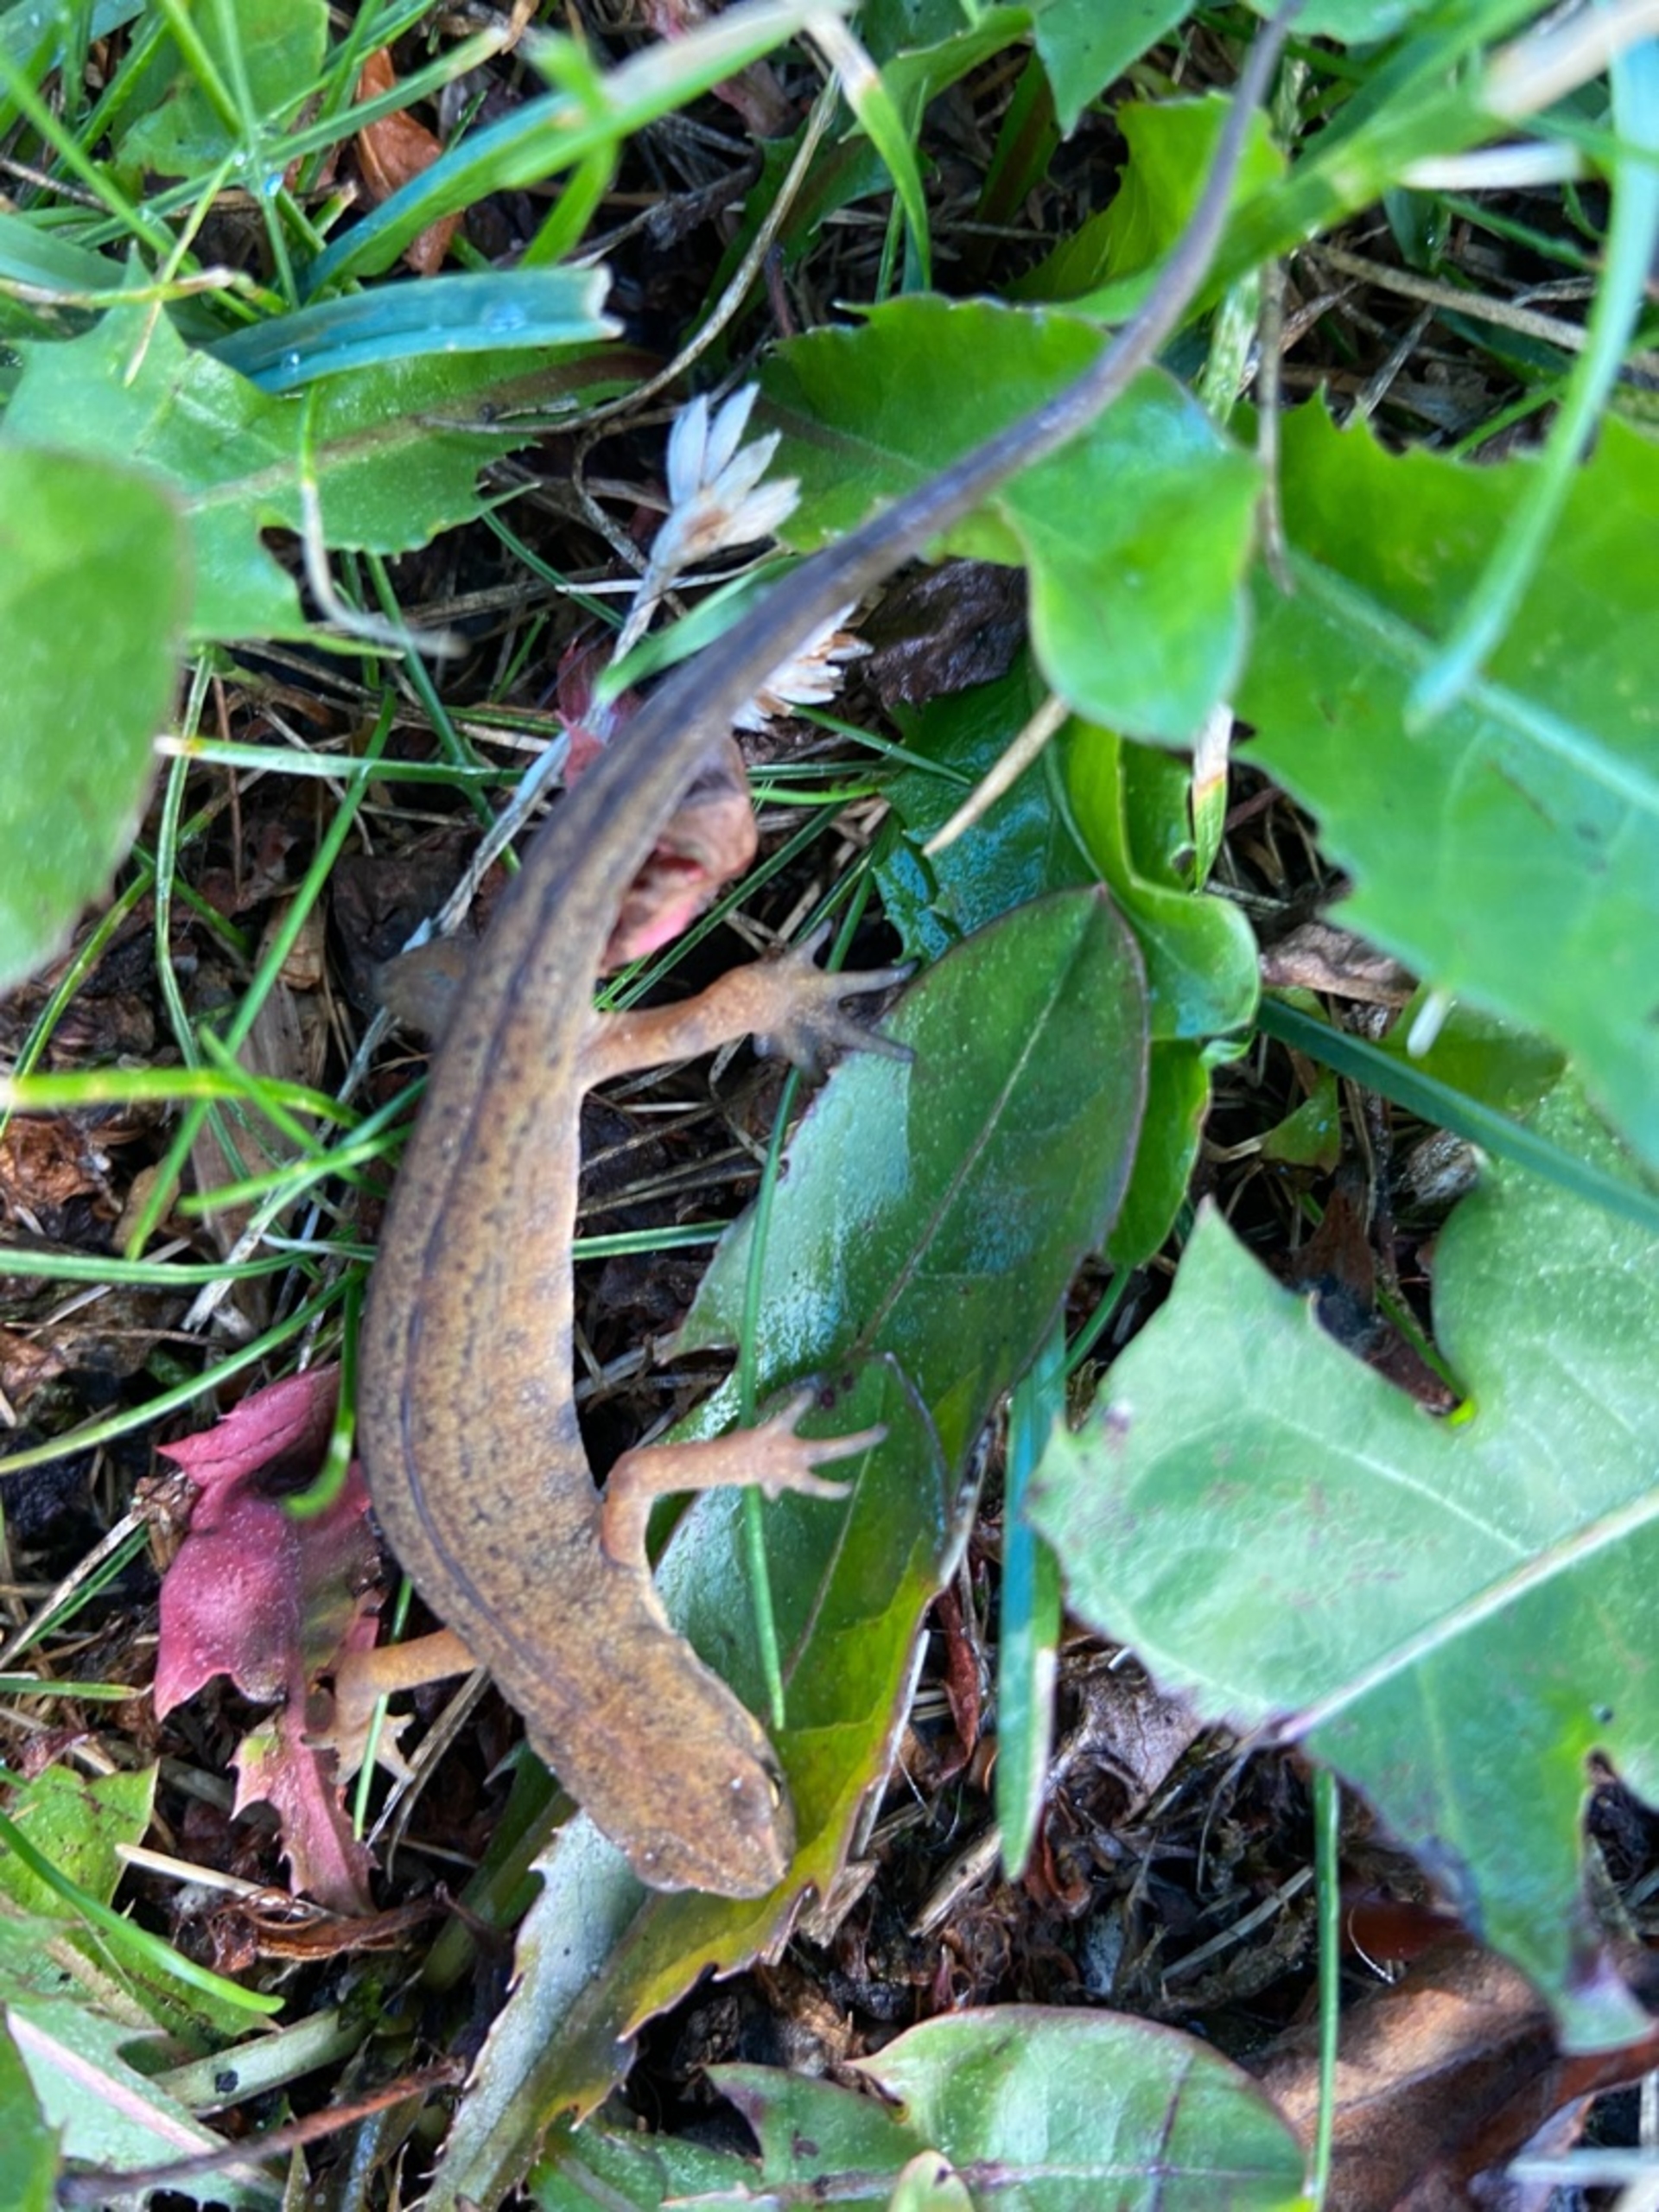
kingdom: Animalia
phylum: Chordata
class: Amphibia
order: Caudata
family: Salamandridae
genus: Lissotriton
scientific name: Lissotriton vulgaris
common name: Lille vandsalamander
